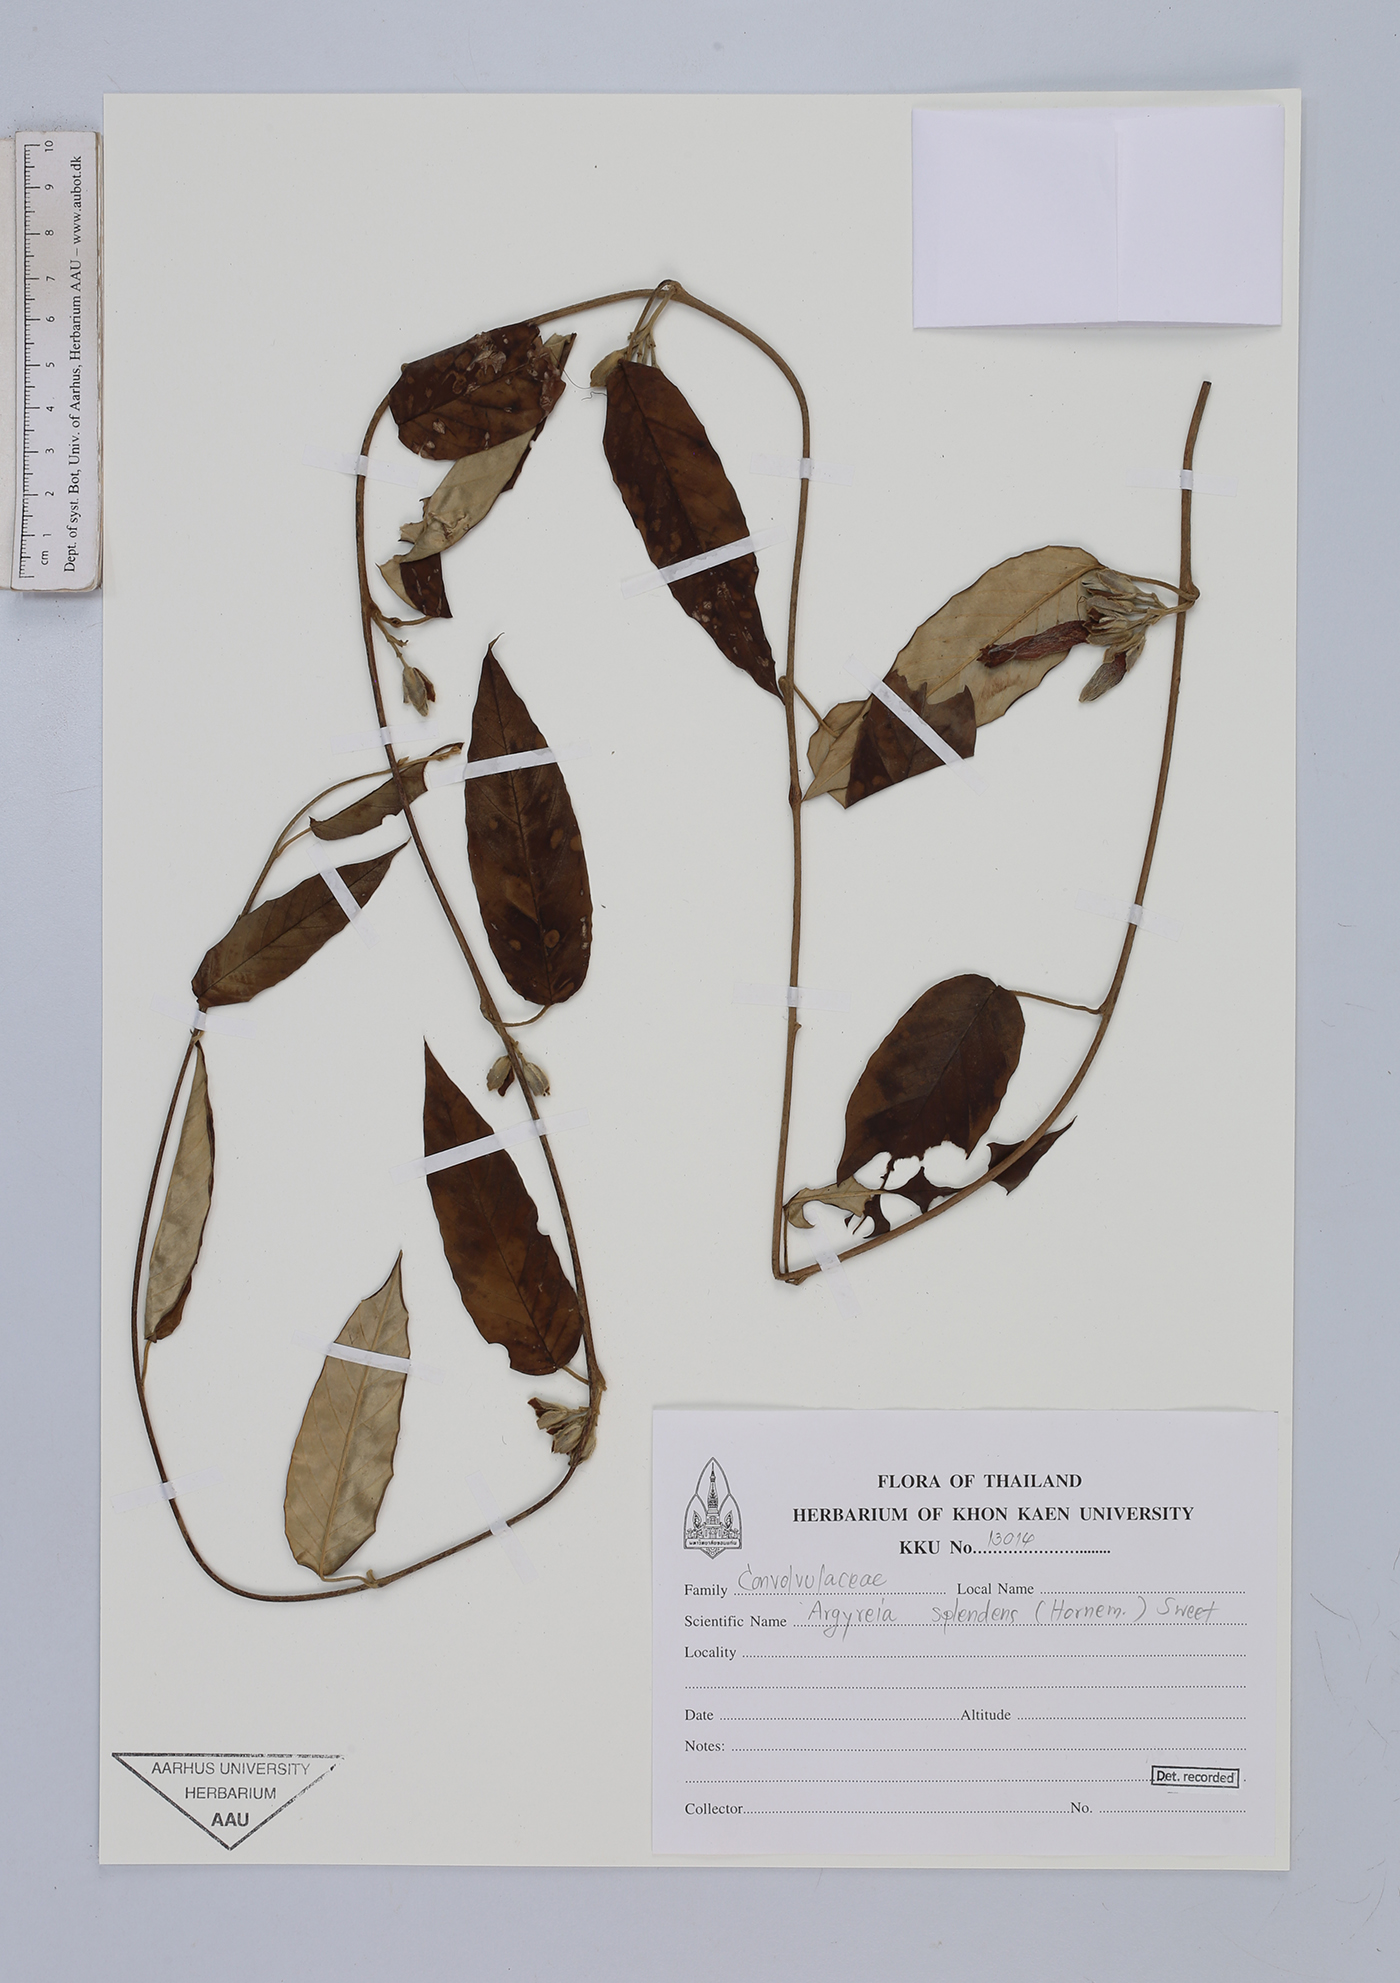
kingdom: Plantae
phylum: Tracheophyta
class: Magnoliopsida
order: Solanales
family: Convolvulaceae
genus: Argyreia
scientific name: Argyreia splendens
